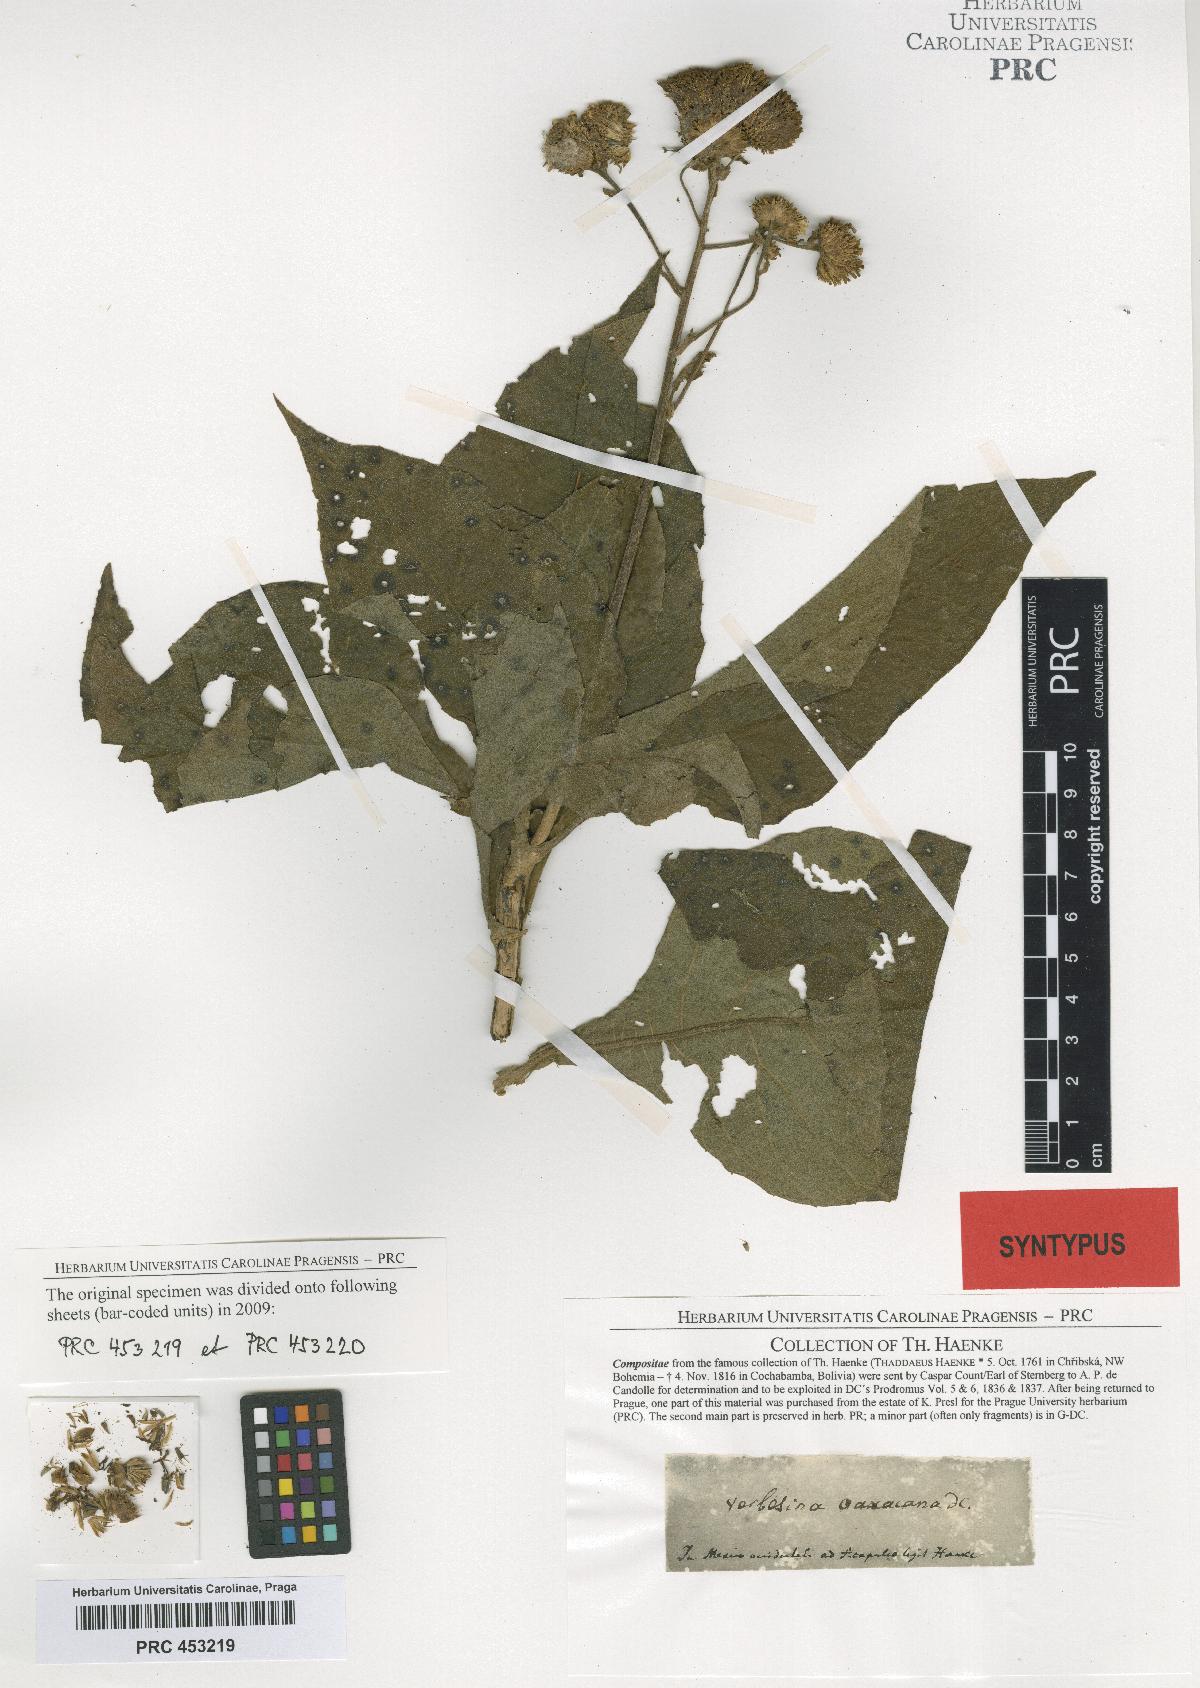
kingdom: Plantae
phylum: Tracheophyta
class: Magnoliopsida
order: Asterales
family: Asteraceae
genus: Verbesina
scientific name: Verbesina mexicana
